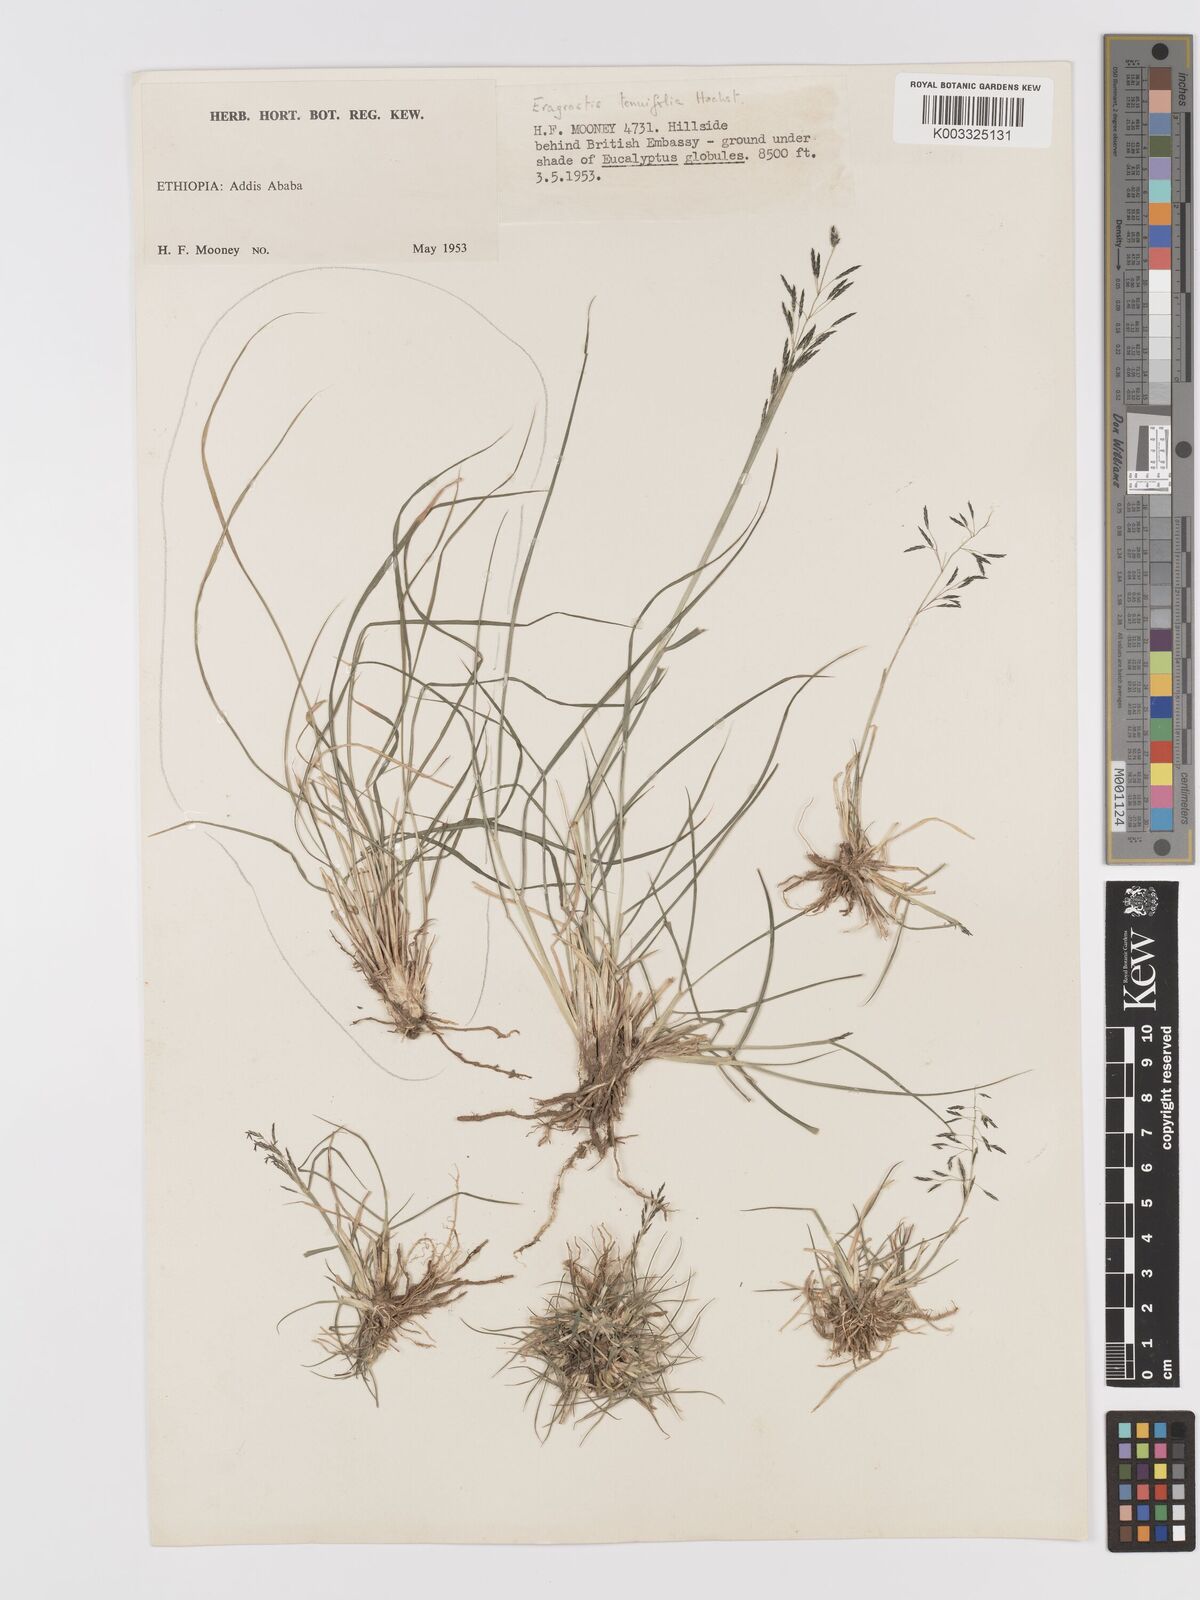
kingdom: Plantae
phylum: Tracheophyta
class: Liliopsida
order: Poales
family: Poaceae
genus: Eragrostis
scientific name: Eragrostis tenuifolia
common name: Elastic grass
